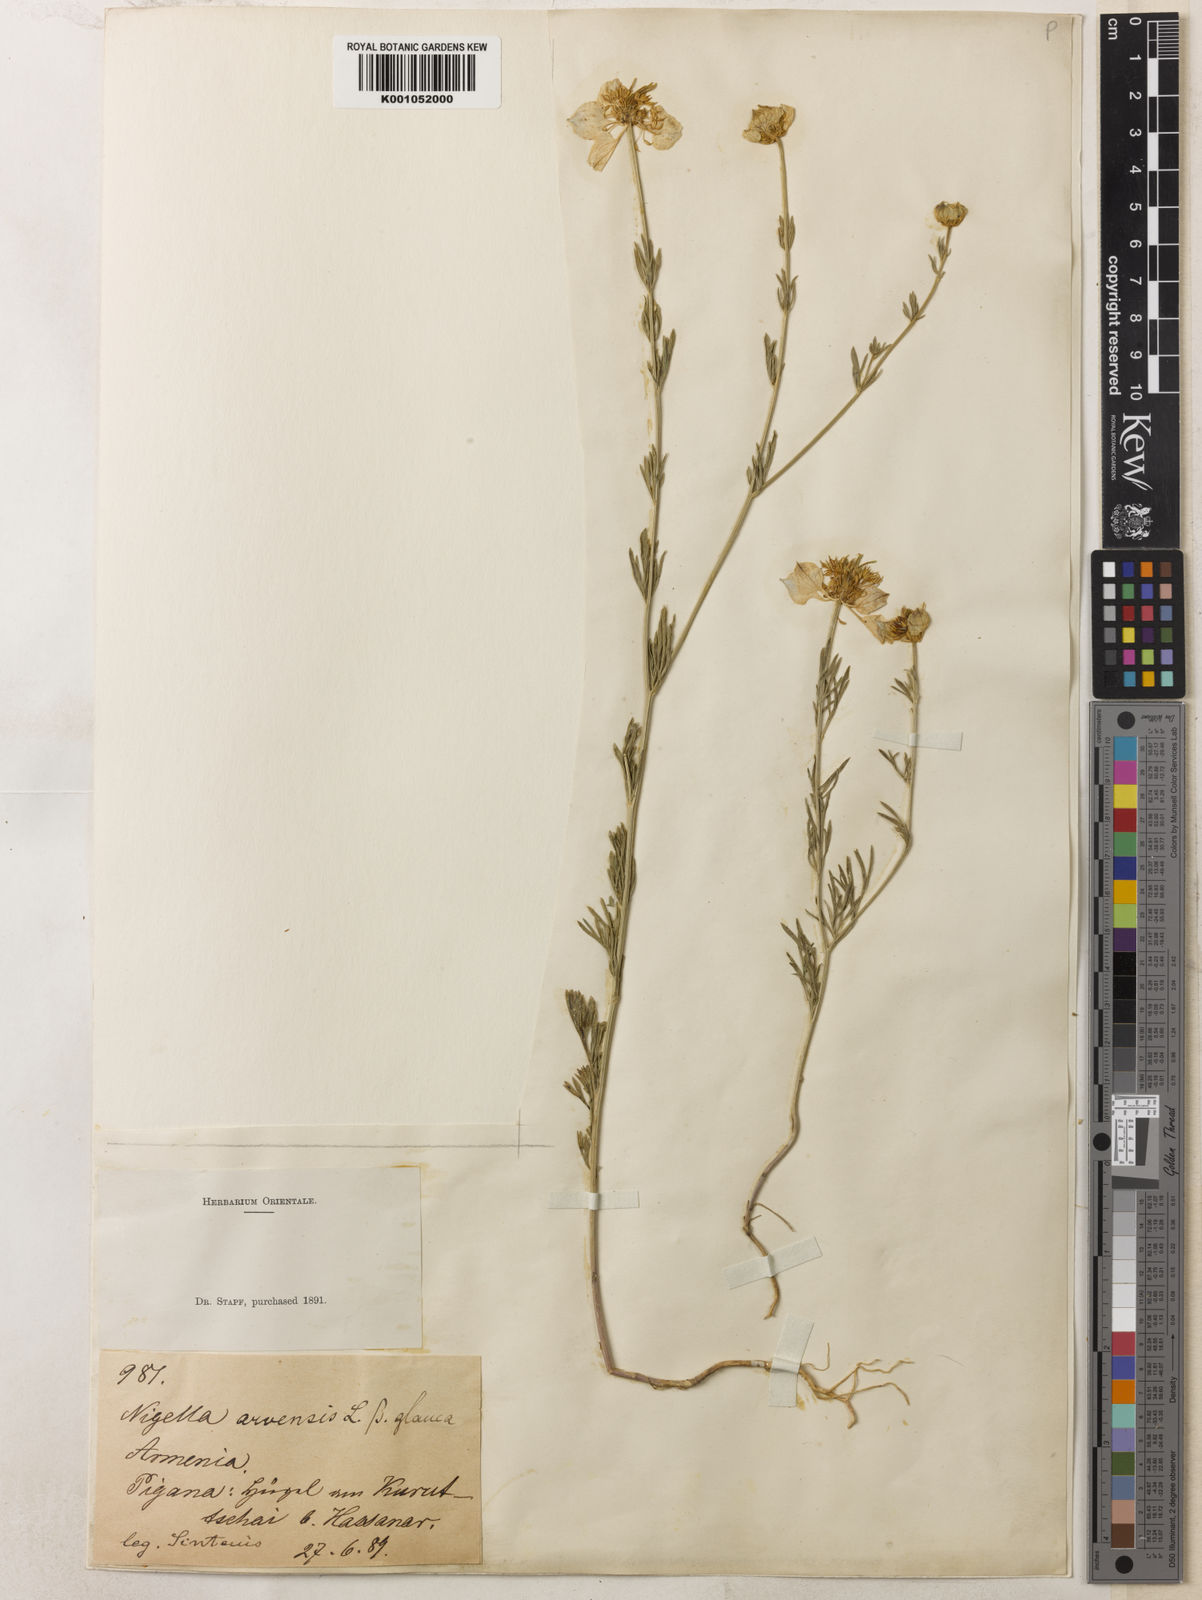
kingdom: Plantae
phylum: Tracheophyta
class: Magnoliopsida
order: Ranunculales
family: Ranunculaceae
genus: Nigella
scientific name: Nigella arvensis
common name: Wild fennel-flower
